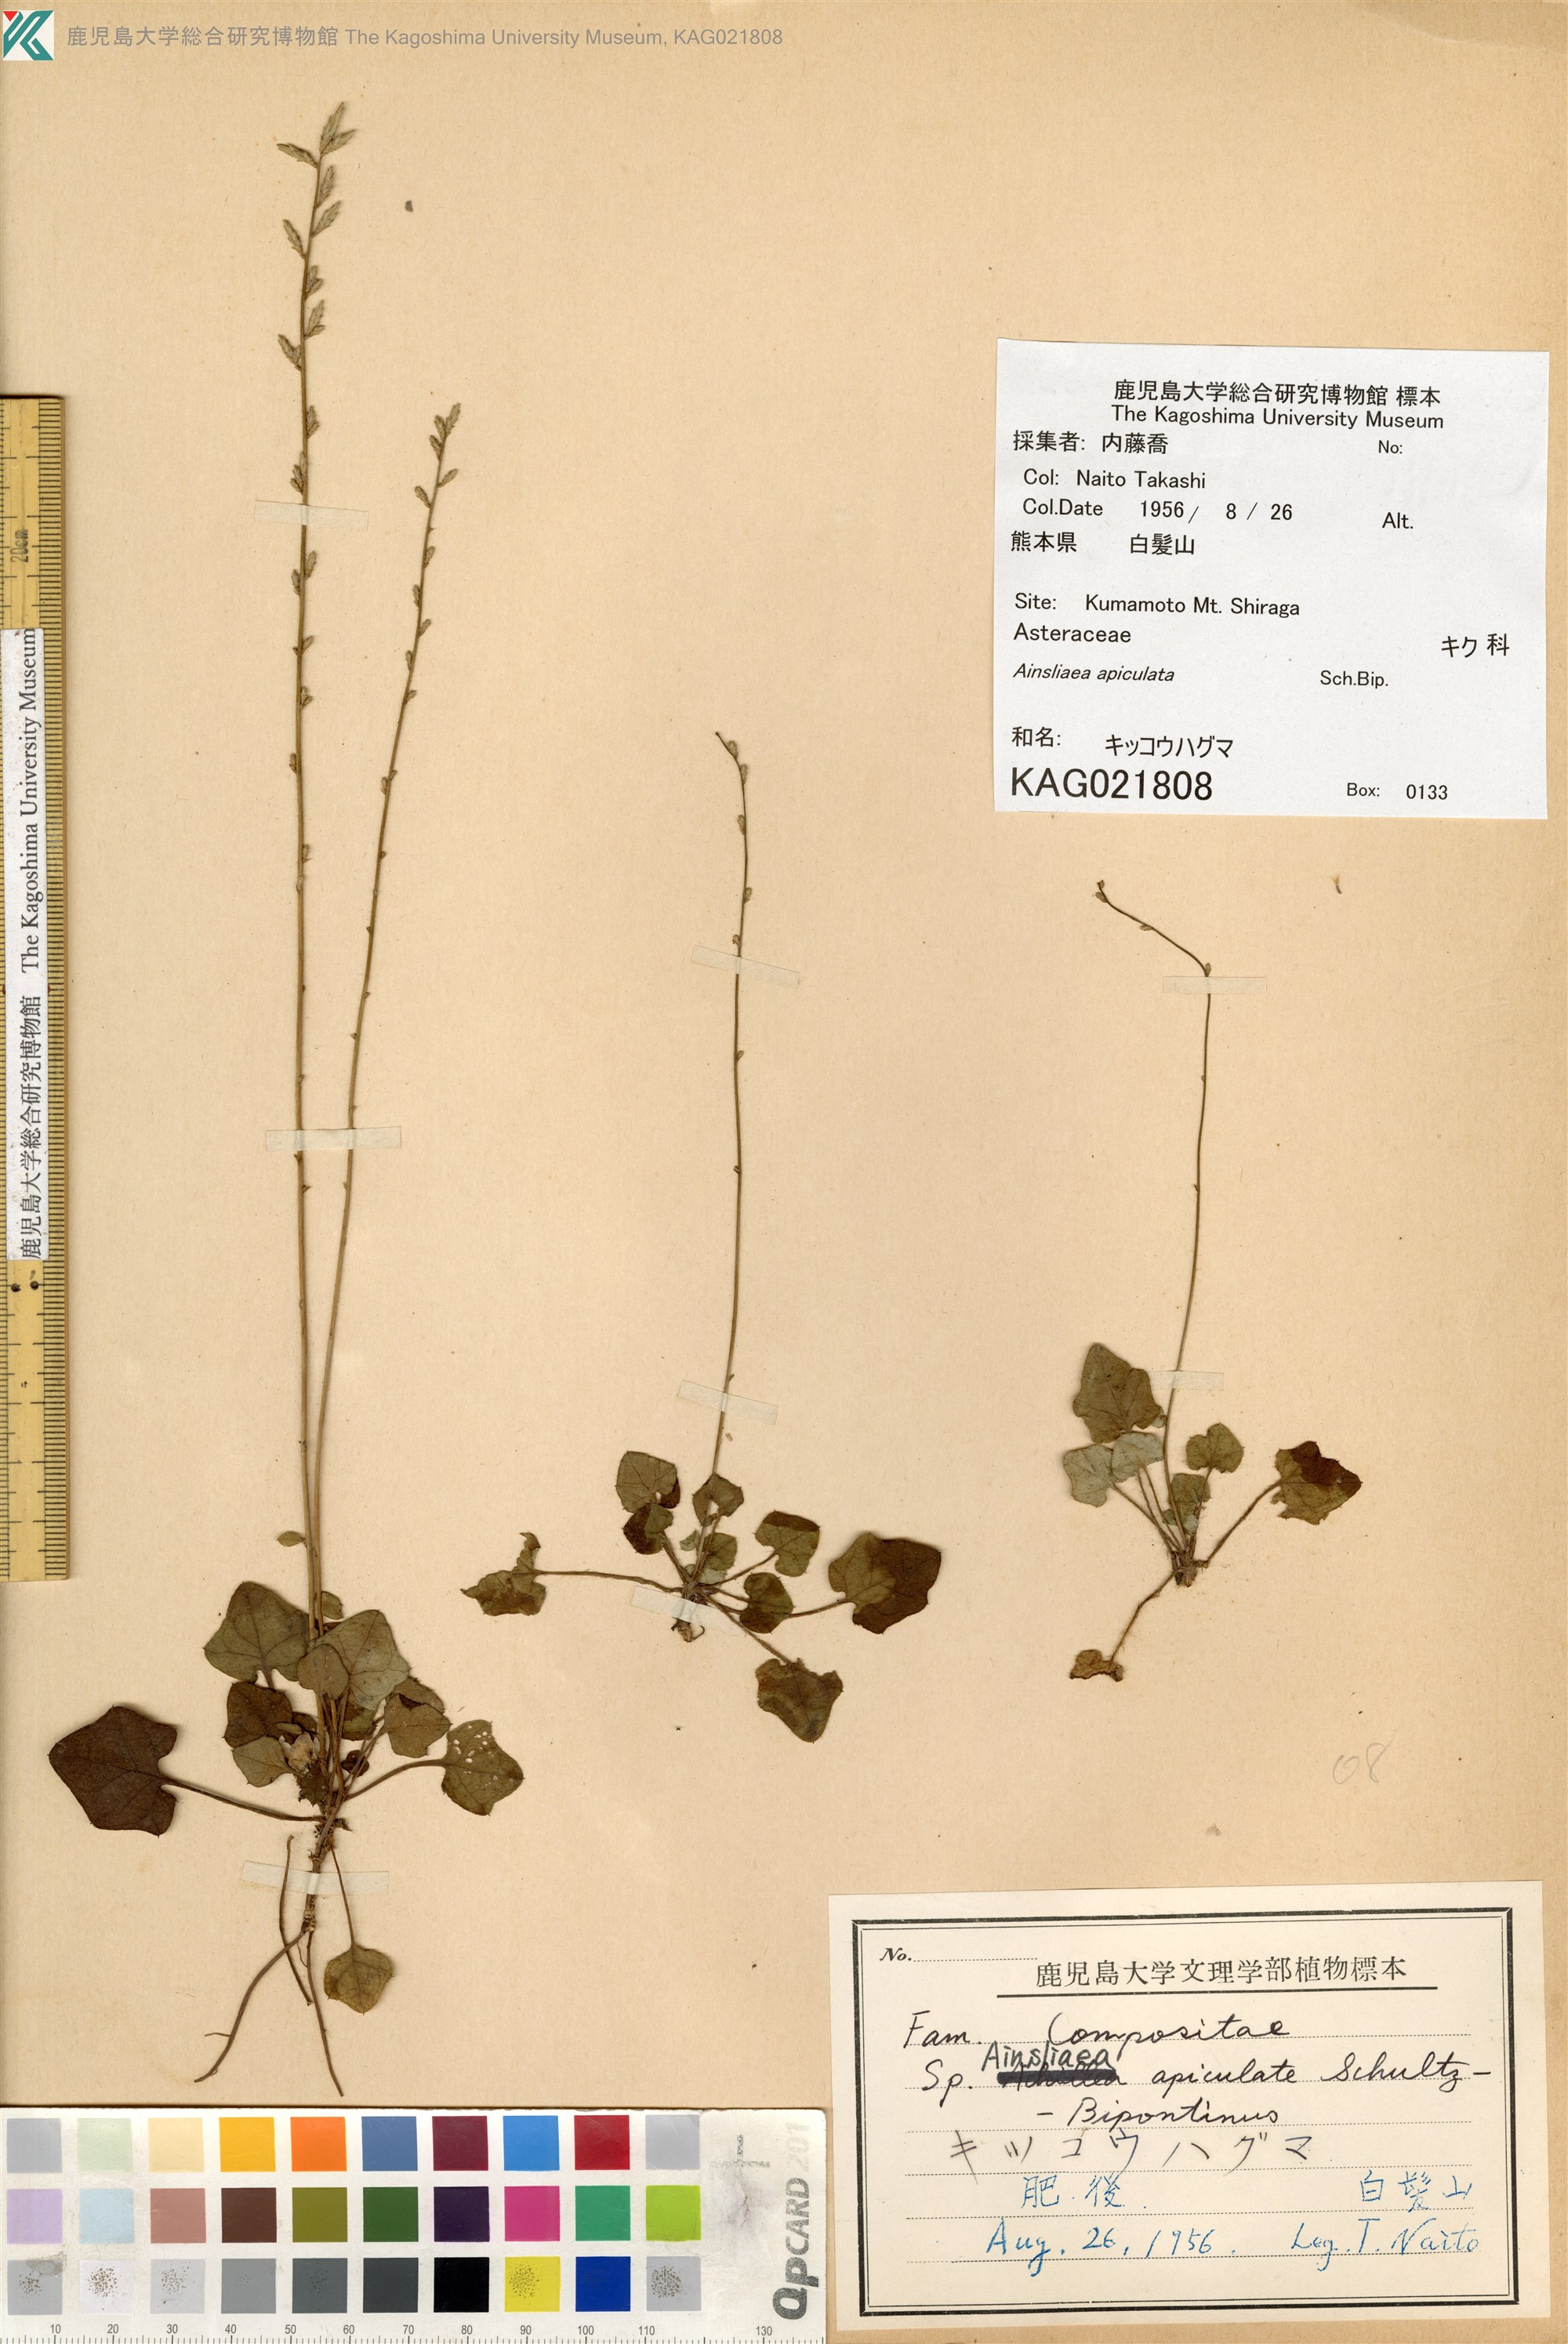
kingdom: Plantae
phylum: Tracheophyta
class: Magnoliopsida
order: Asterales
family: Asteraceae
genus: Ainsliaea
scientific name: Ainsliaea apiculata
